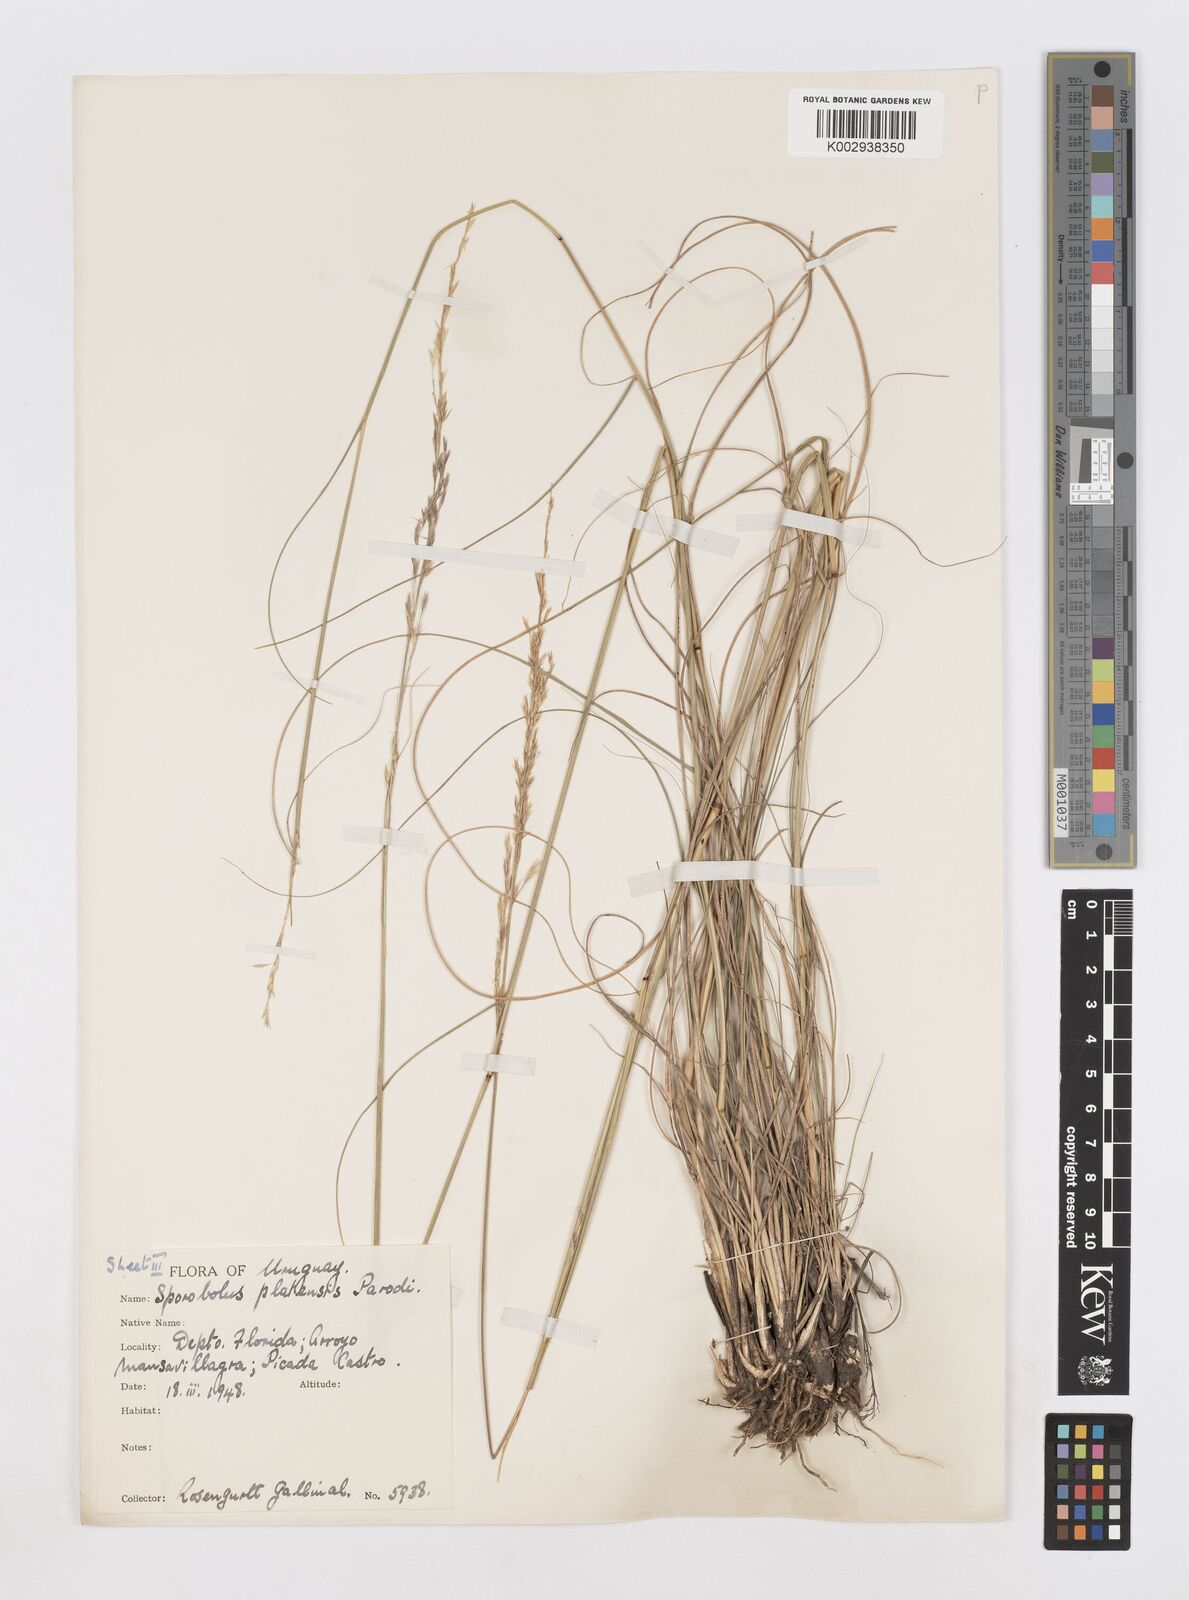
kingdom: Plantae
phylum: Tracheophyta
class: Liliopsida
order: Poales
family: Poaceae
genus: Sporobolus
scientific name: Sporobolus platensis
